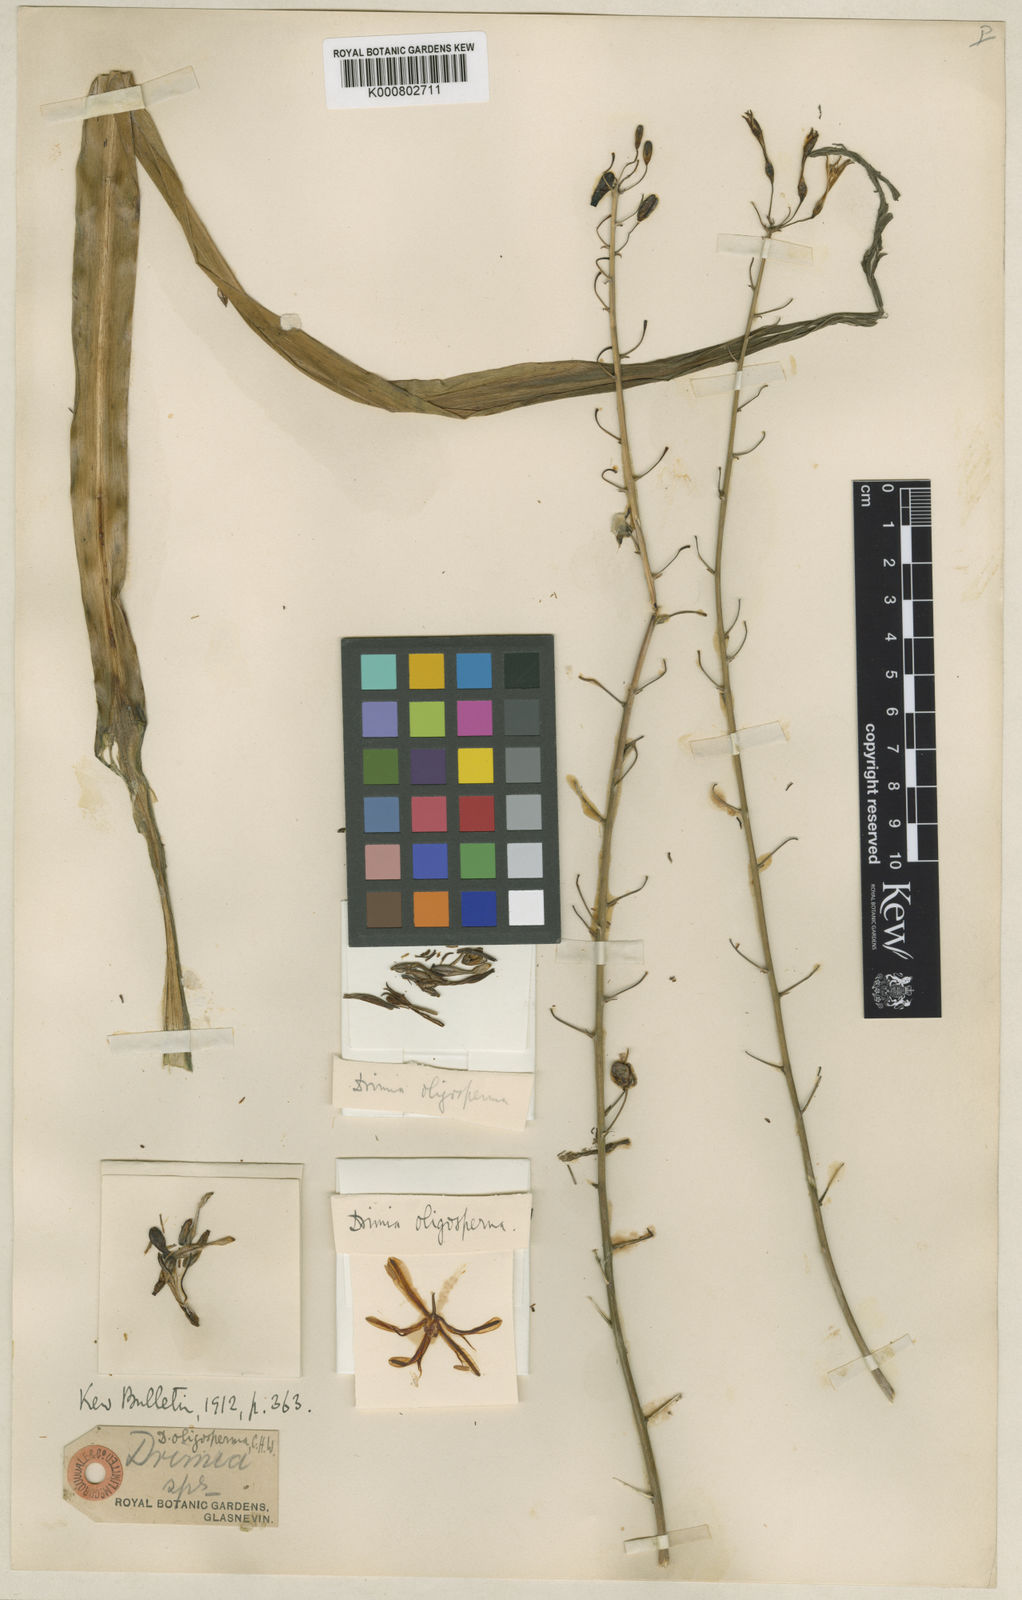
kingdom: Plantae
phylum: Tracheophyta
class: Liliopsida
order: Asparagales
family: Asparagaceae
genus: Chlorogalum
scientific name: Chlorogalum
